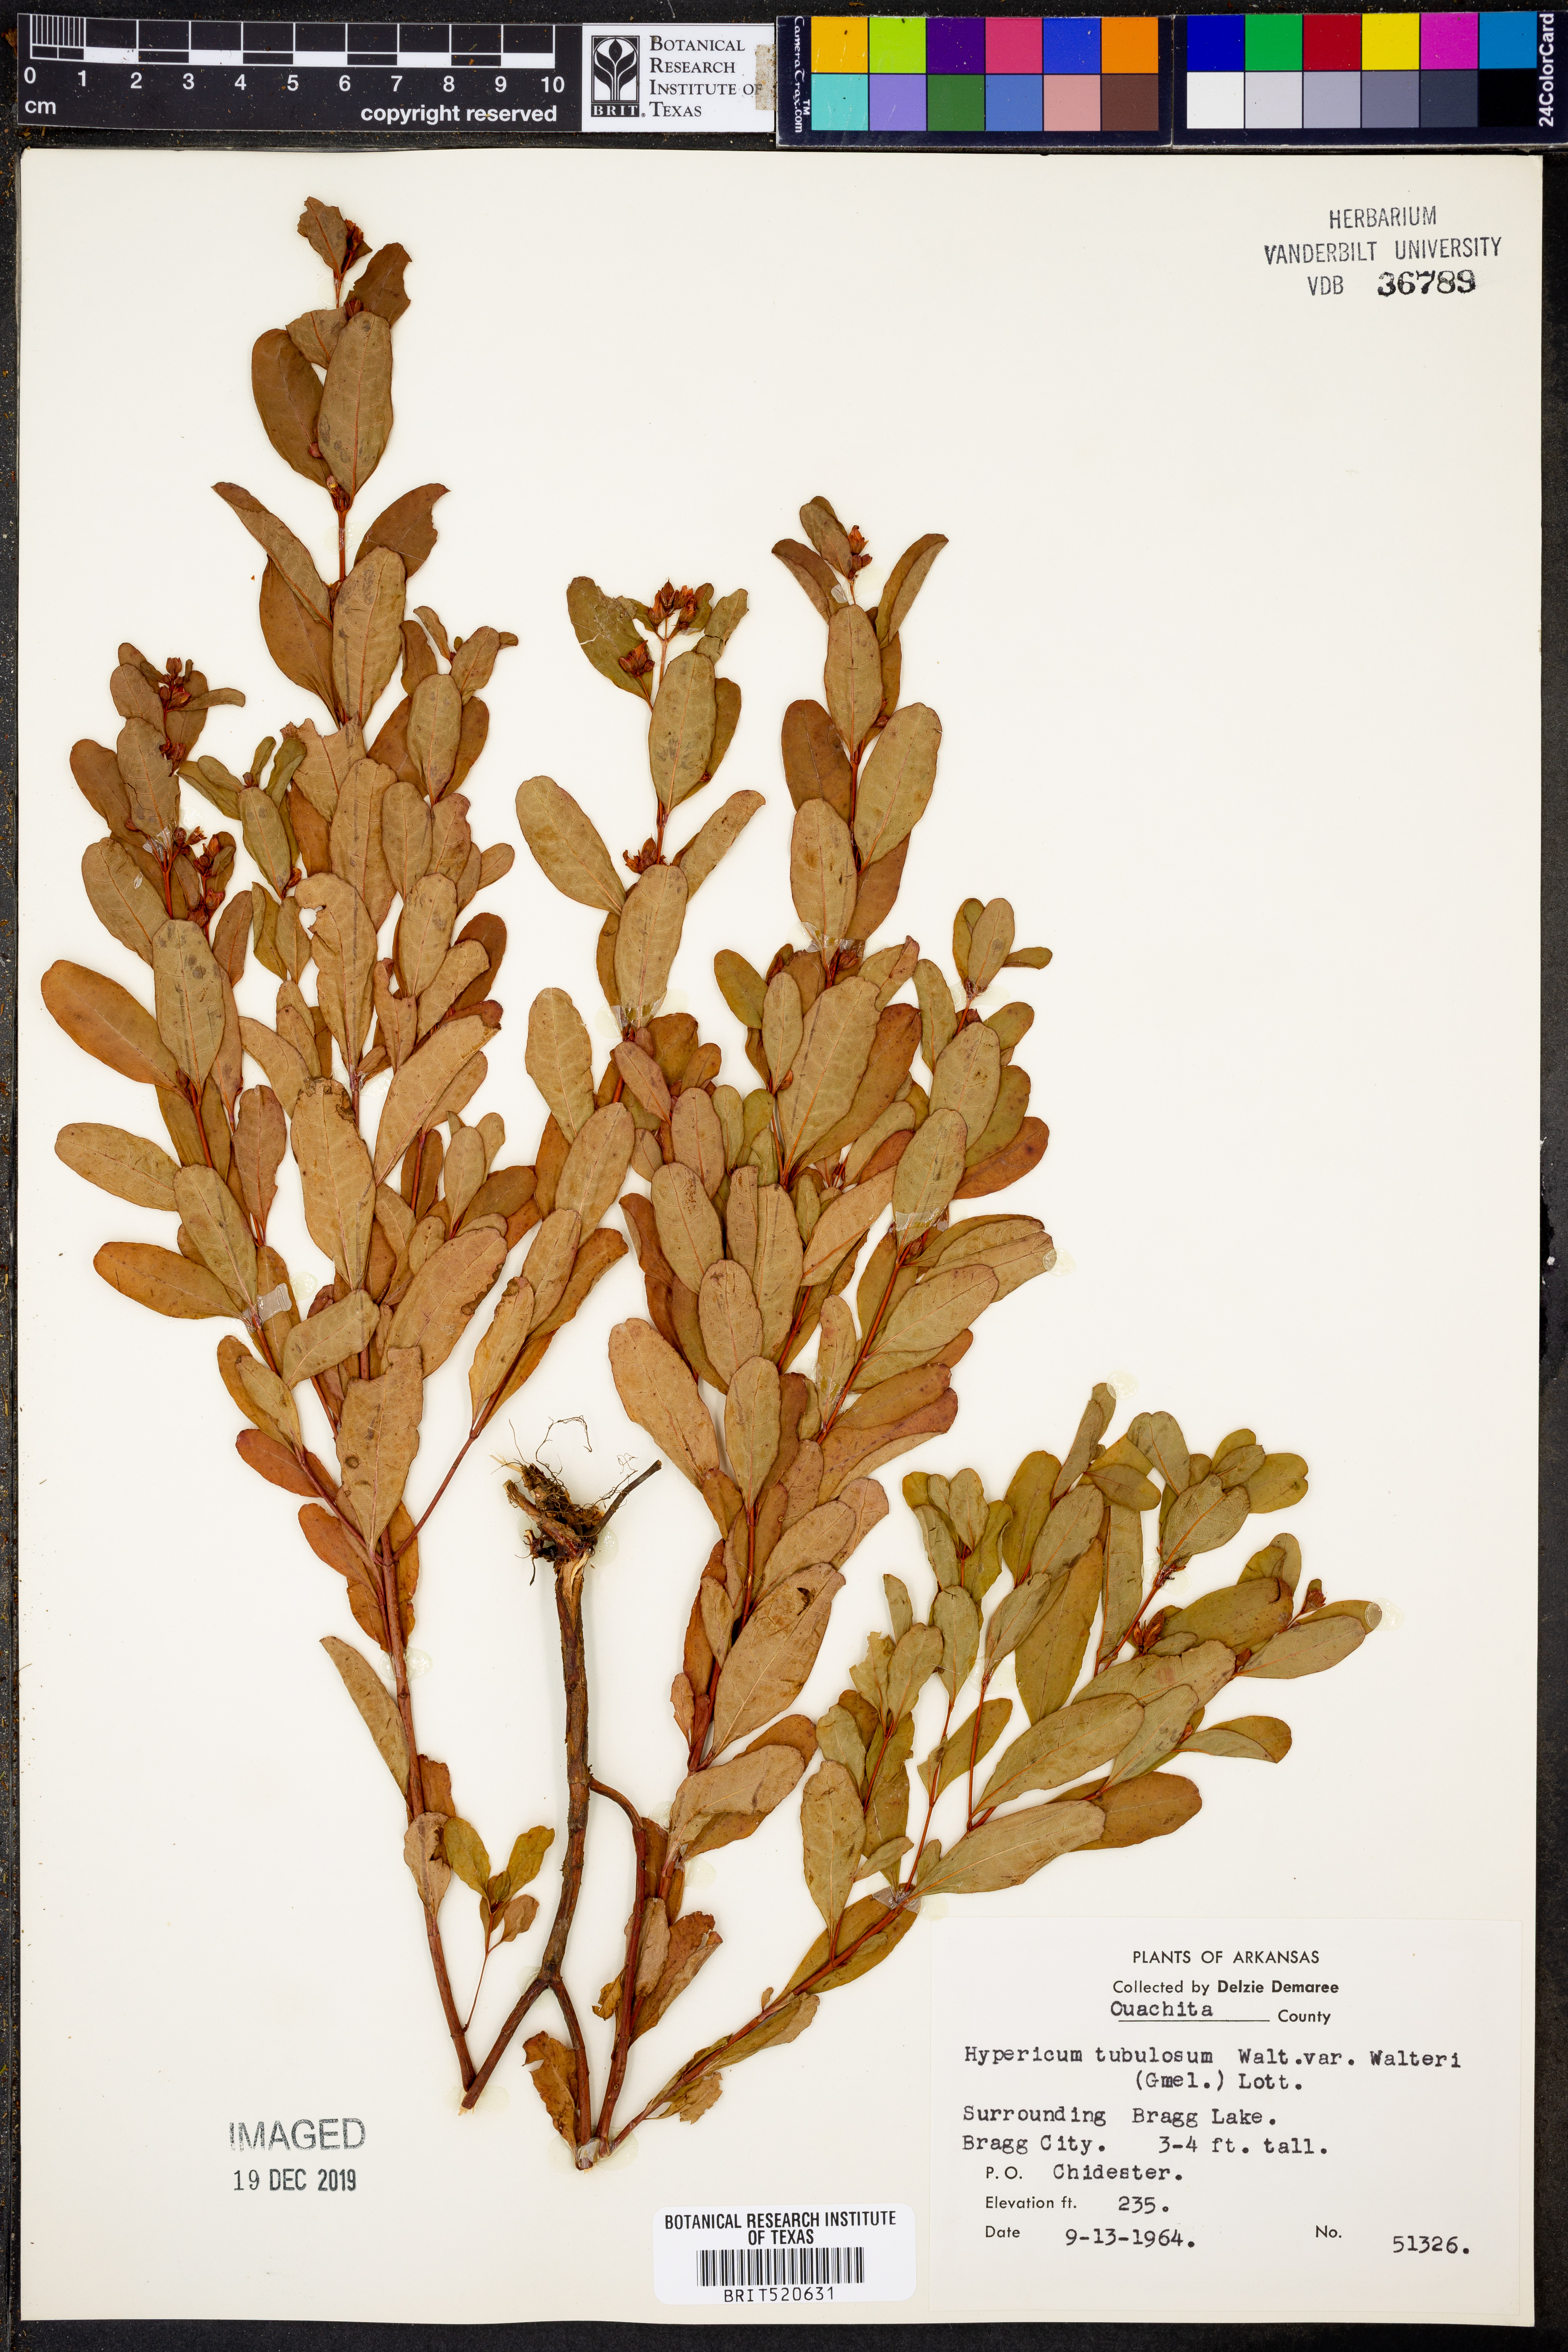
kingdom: Plantae
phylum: Tracheophyta
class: Magnoliopsida
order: Malpighiales
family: Hypericaceae
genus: Triadenum
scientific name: Triadenum walteri
